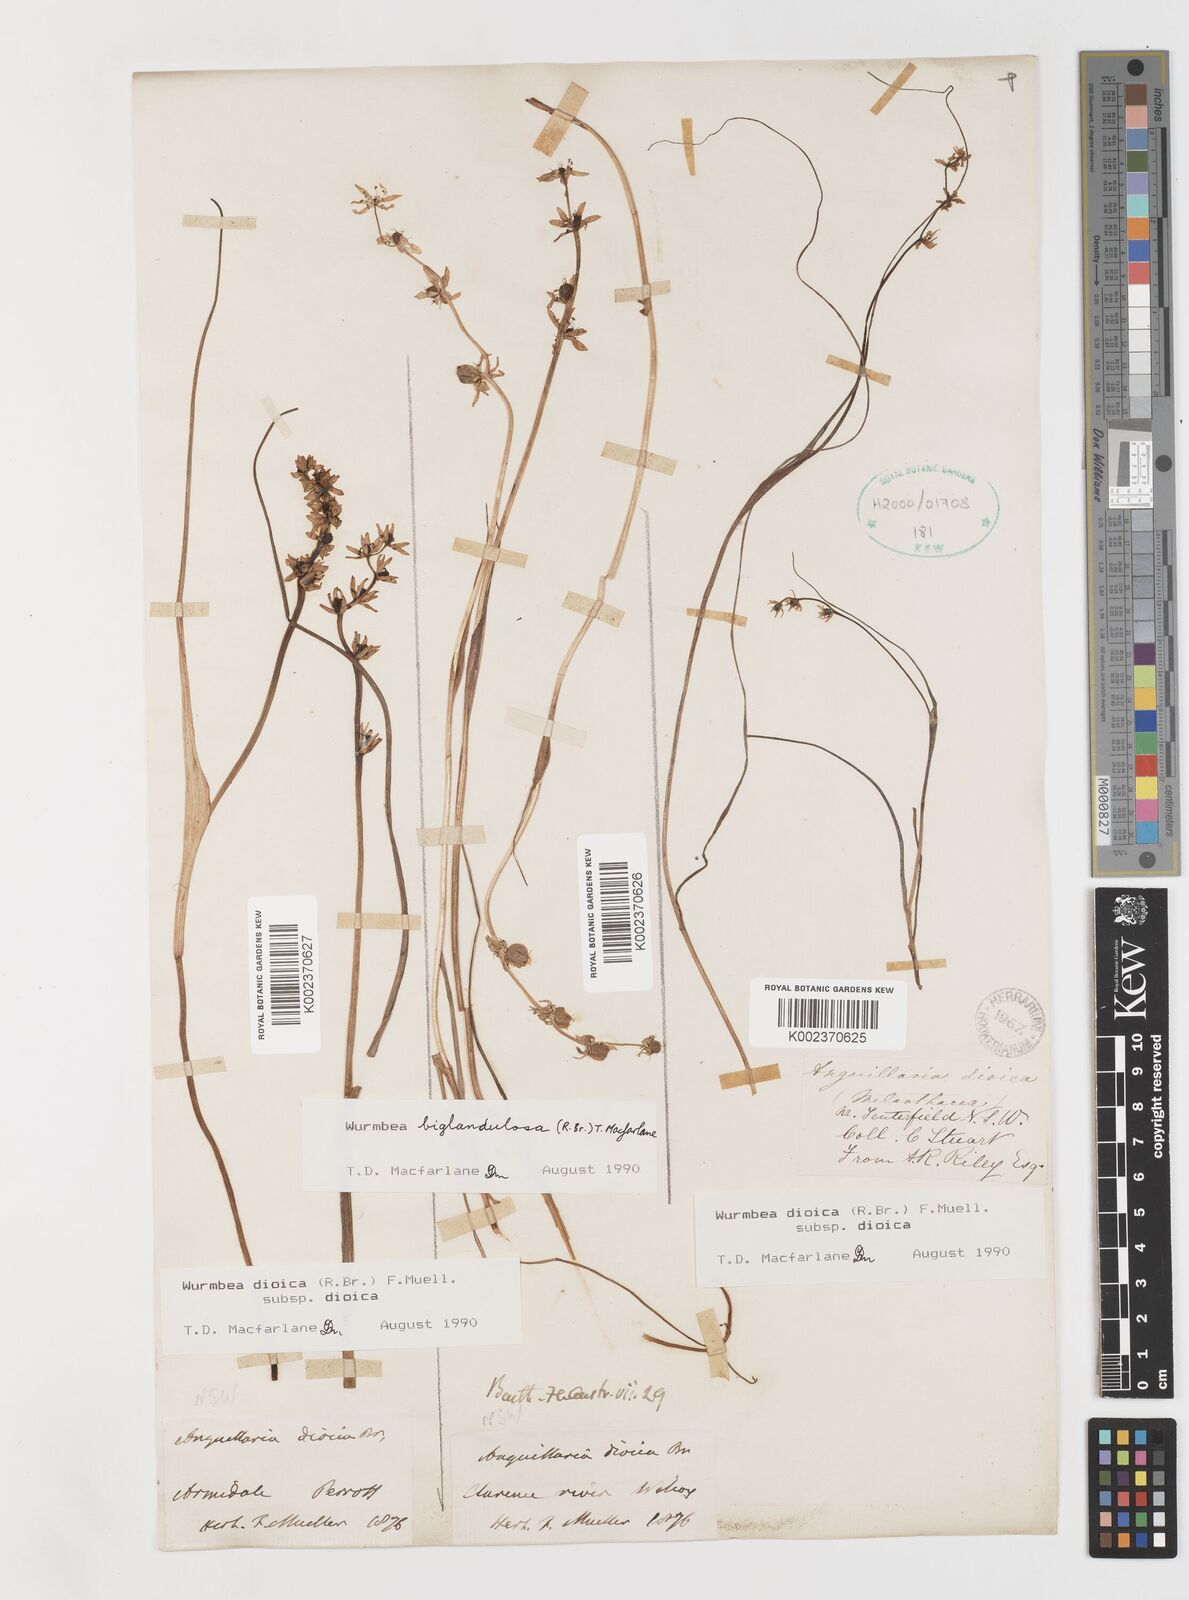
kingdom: Plantae
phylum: Tracheophyta
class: Liliopsida
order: Liliales
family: Colchicaceae
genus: Wurmbea
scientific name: Wurmbea biglandulosa
